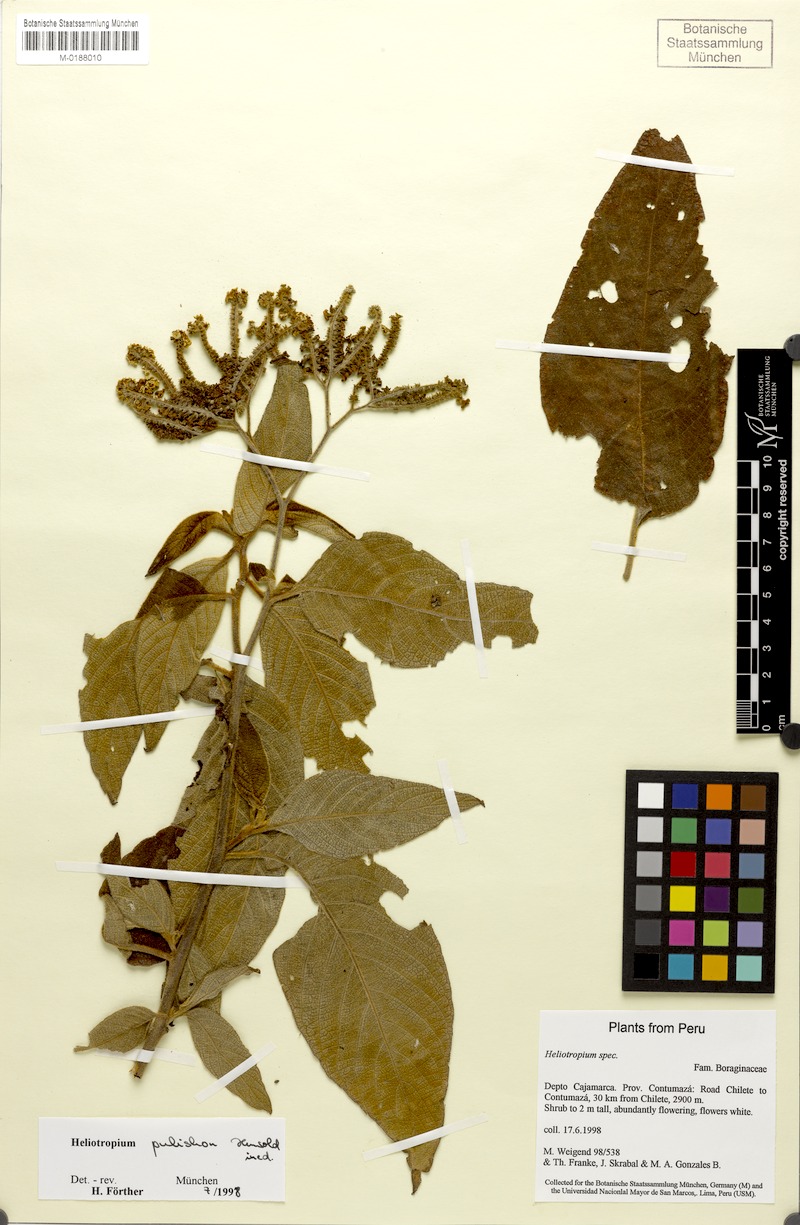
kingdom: Plantae
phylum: Tracheophyta
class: Magnoliopsida
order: Boraginales
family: Heliotropiaceae
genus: Heliotropium
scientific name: Heliotropium
